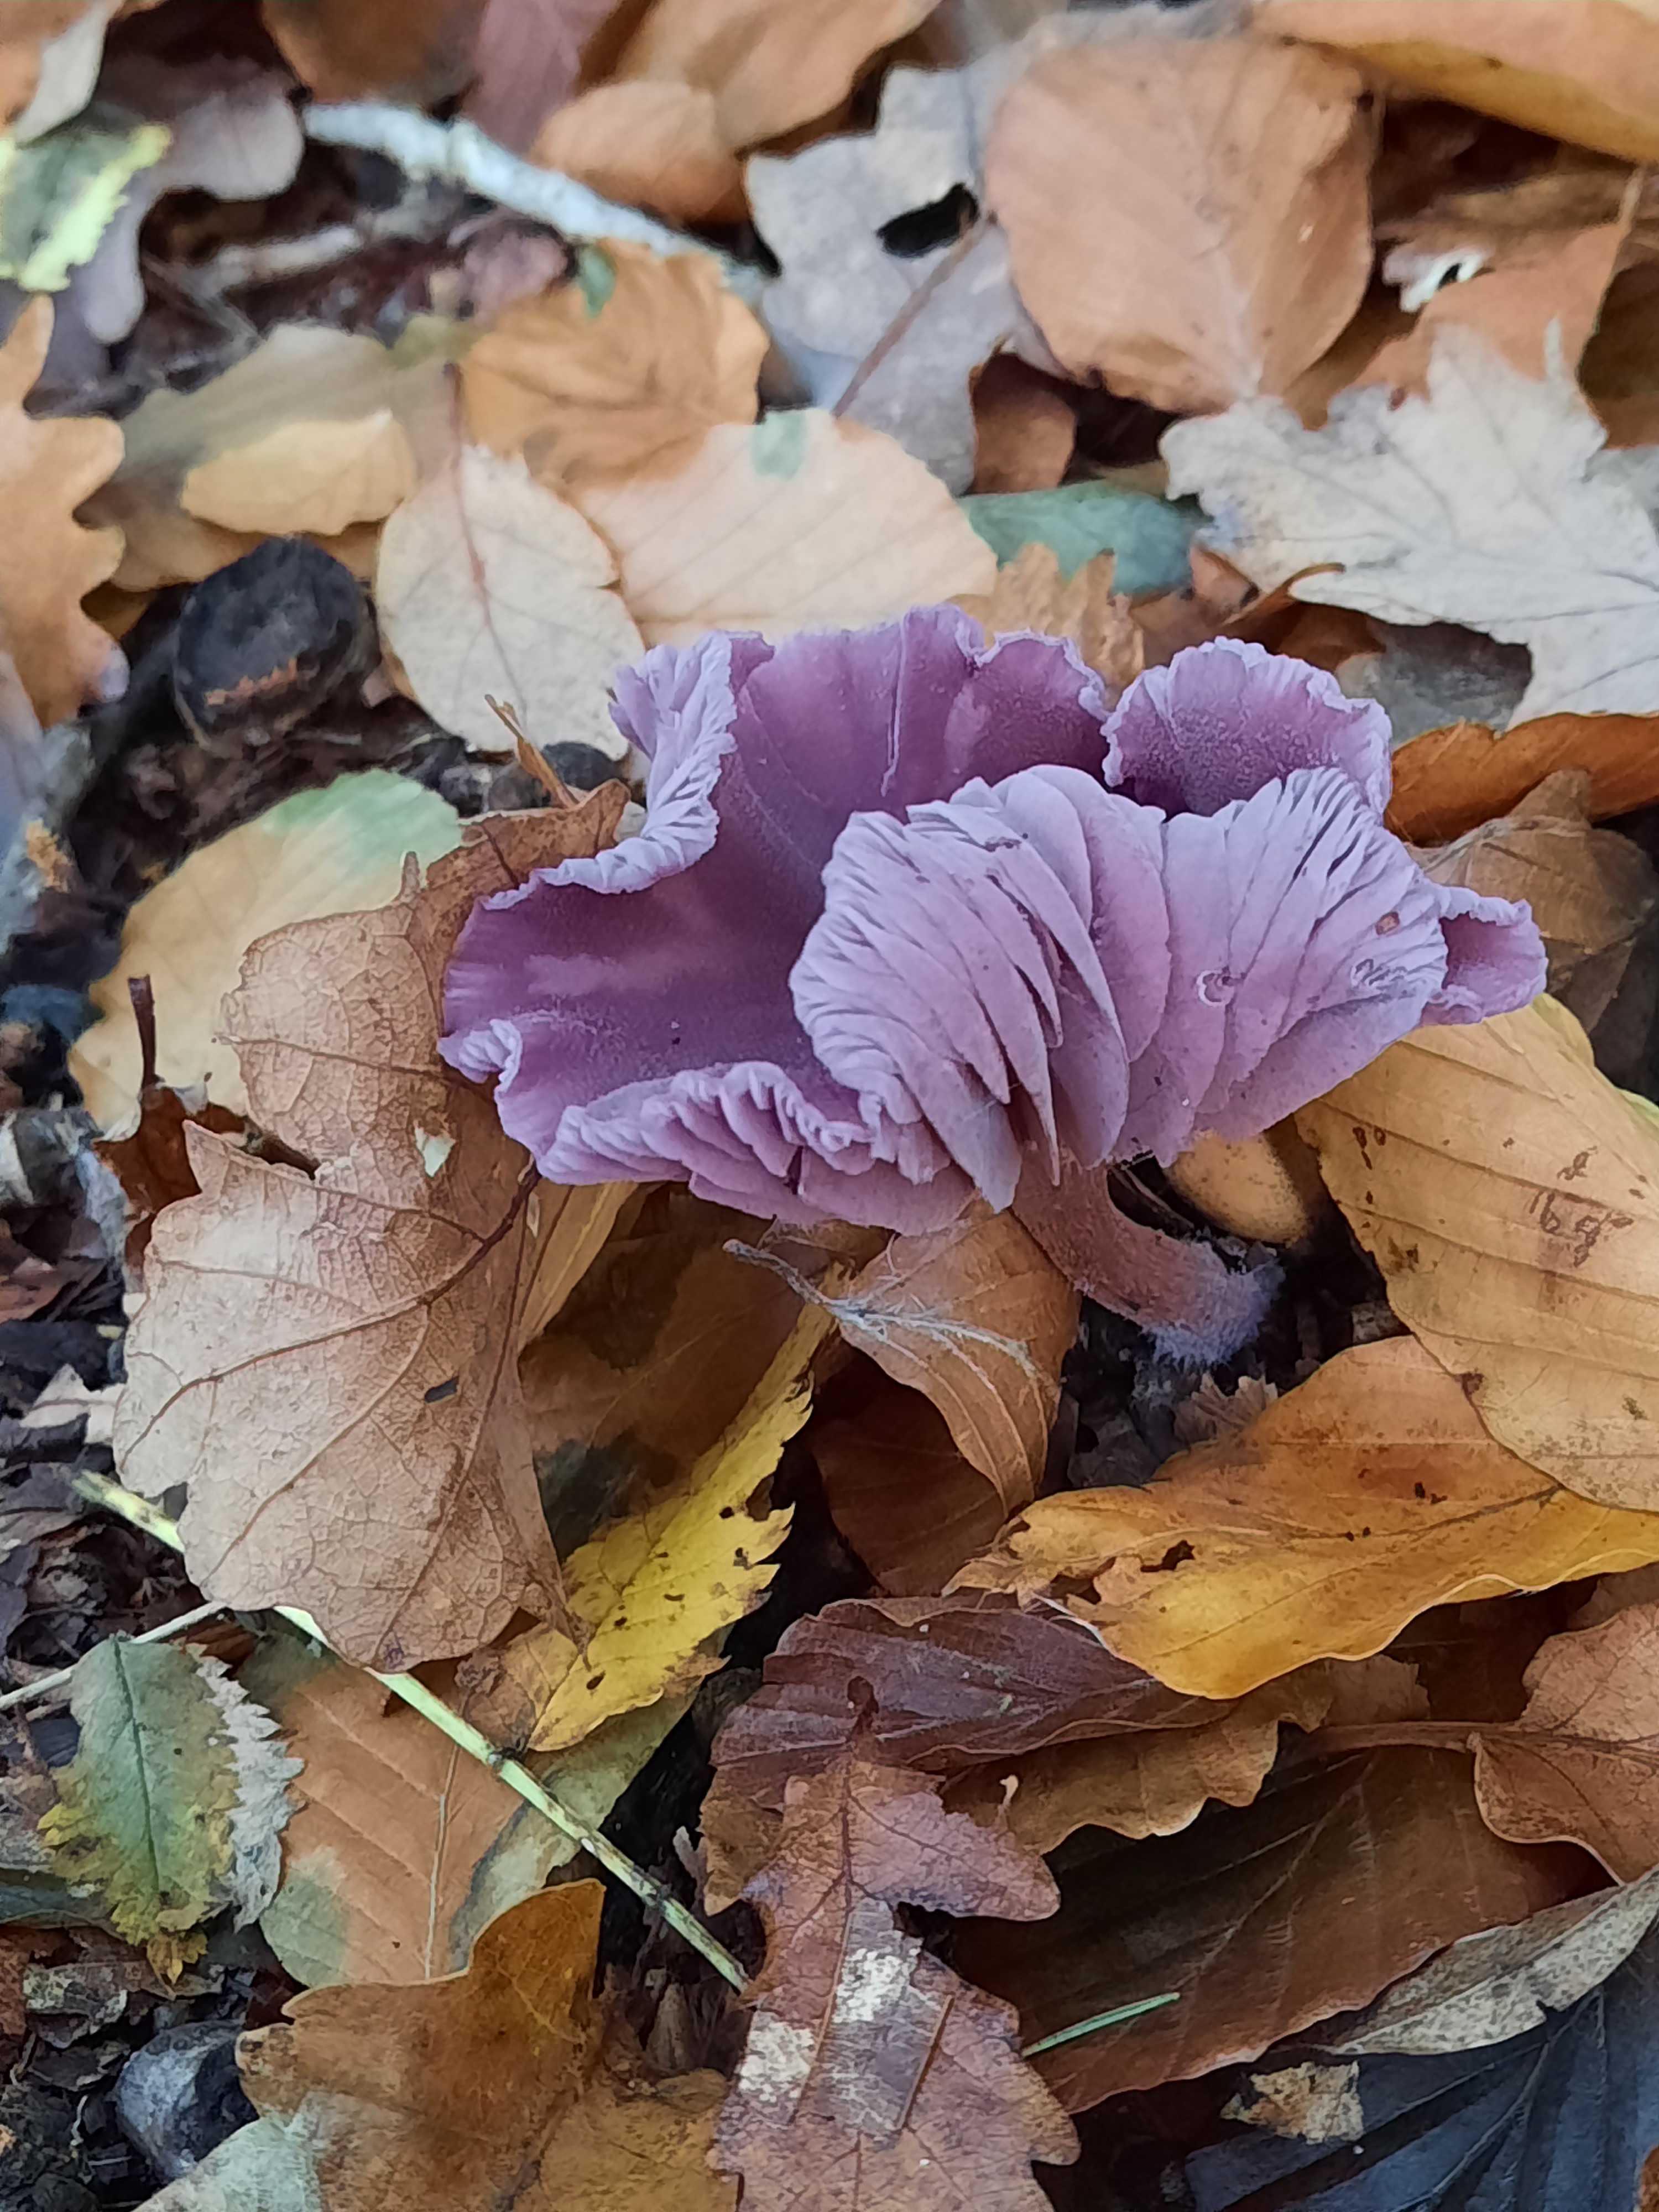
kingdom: Fungi
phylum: Basidiomycota
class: Agaricomycetes
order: Agaricales
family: Hydnangiaceae
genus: Laccaria
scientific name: Laccaria amethystina
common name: violet ametysthat
